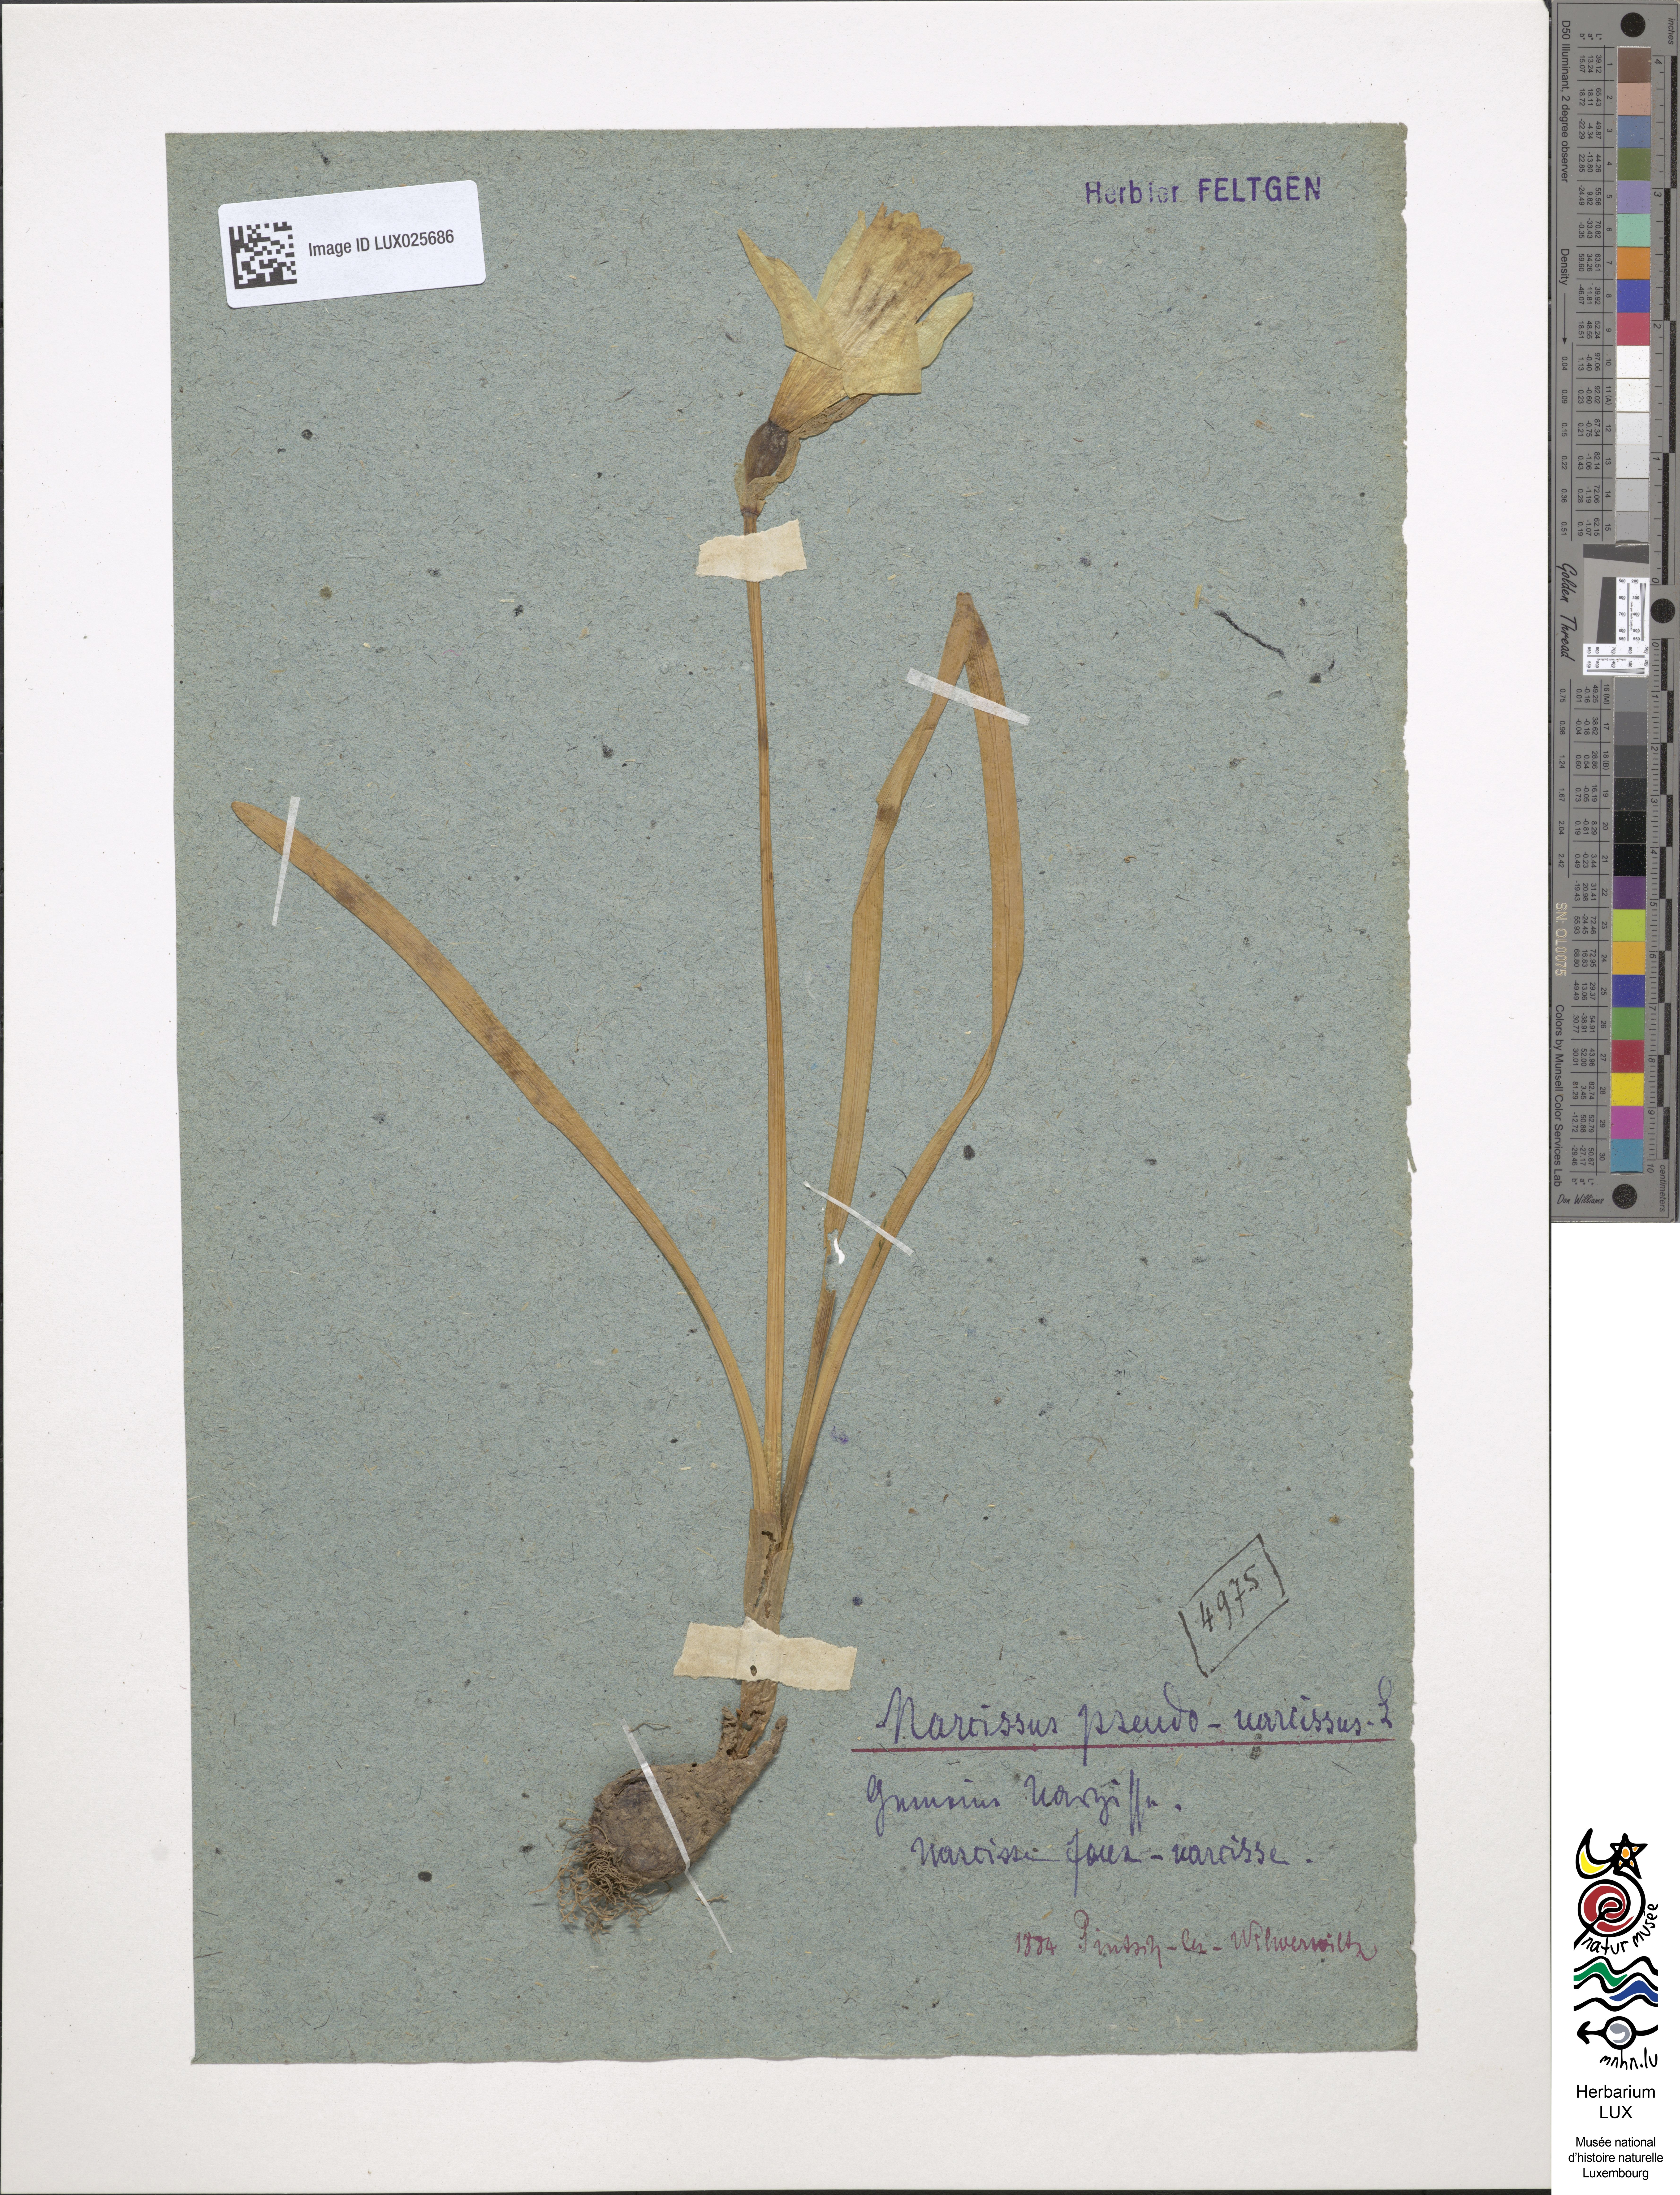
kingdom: Plantae
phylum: Tracheophyta
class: Liliopsida
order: Asparagales
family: Amaryllidaceae
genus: Narcissus
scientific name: Narcissus pseudonarcissus
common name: Daffodil
